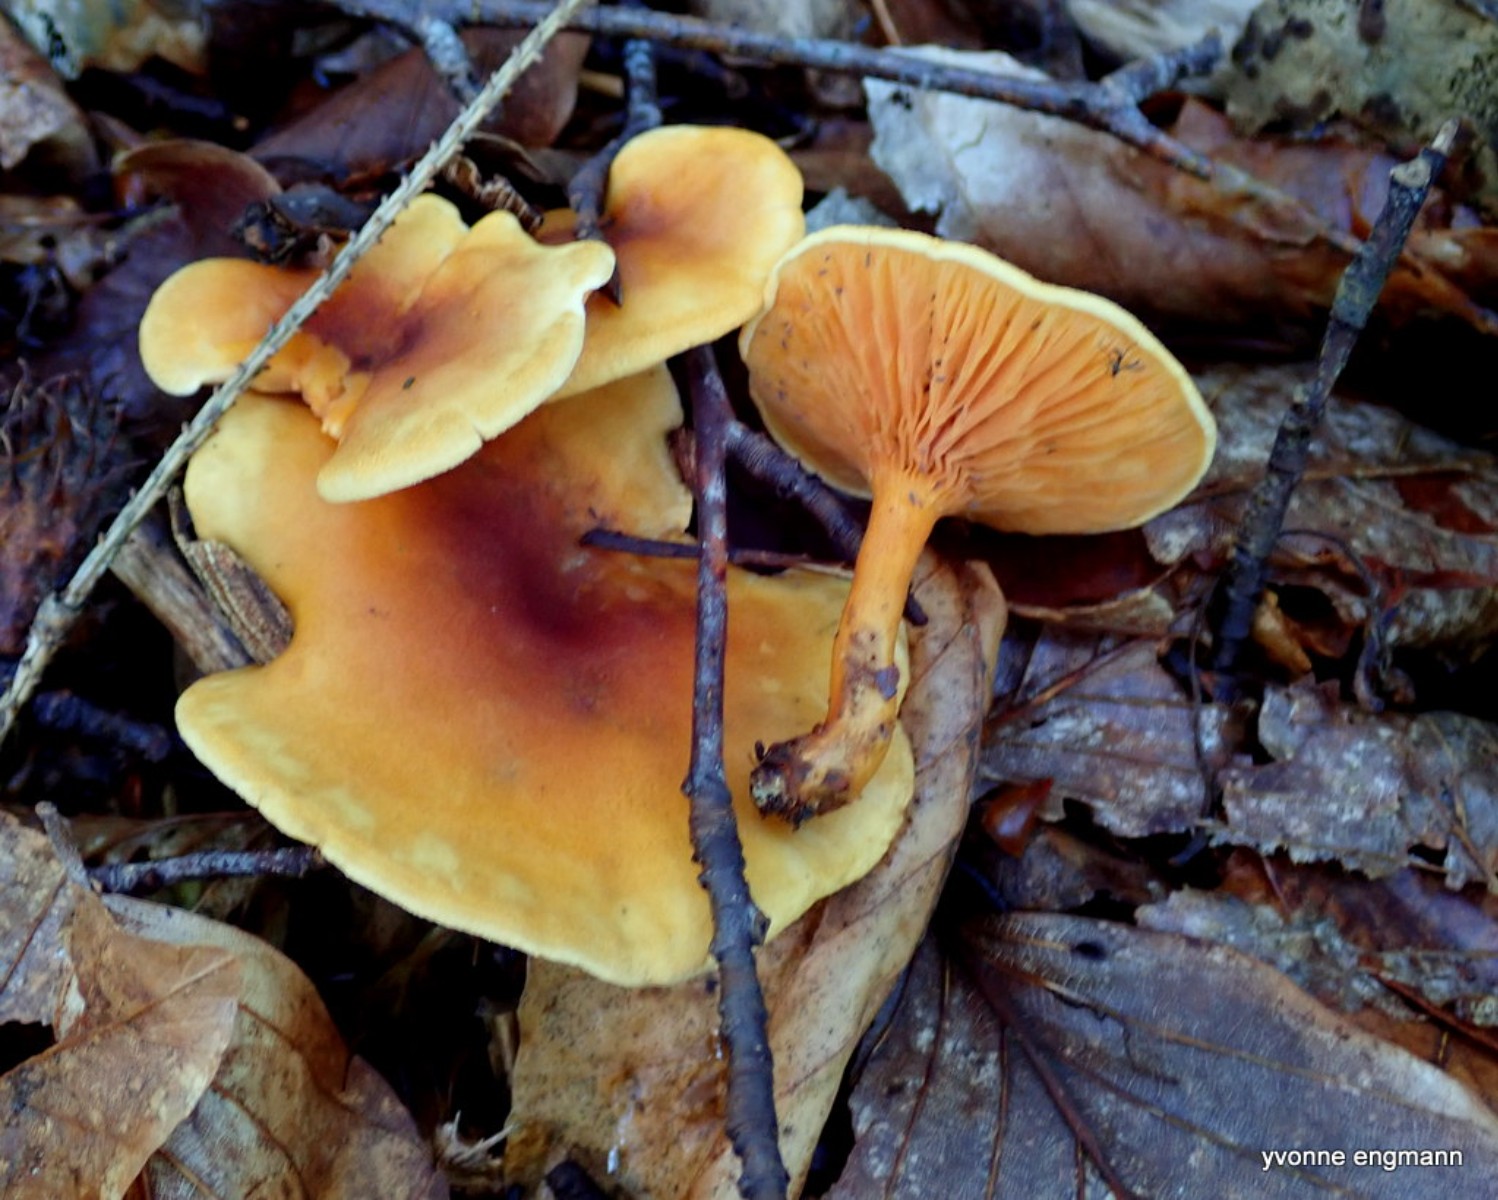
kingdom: Fungi
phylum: Basidiomycota
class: Agaricomycetes
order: Boletales
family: Hygrophoropsidaceae
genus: Hygrophoropsis
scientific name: Hygrophoropsis aurantiaca
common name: almindelig orangekantarel
